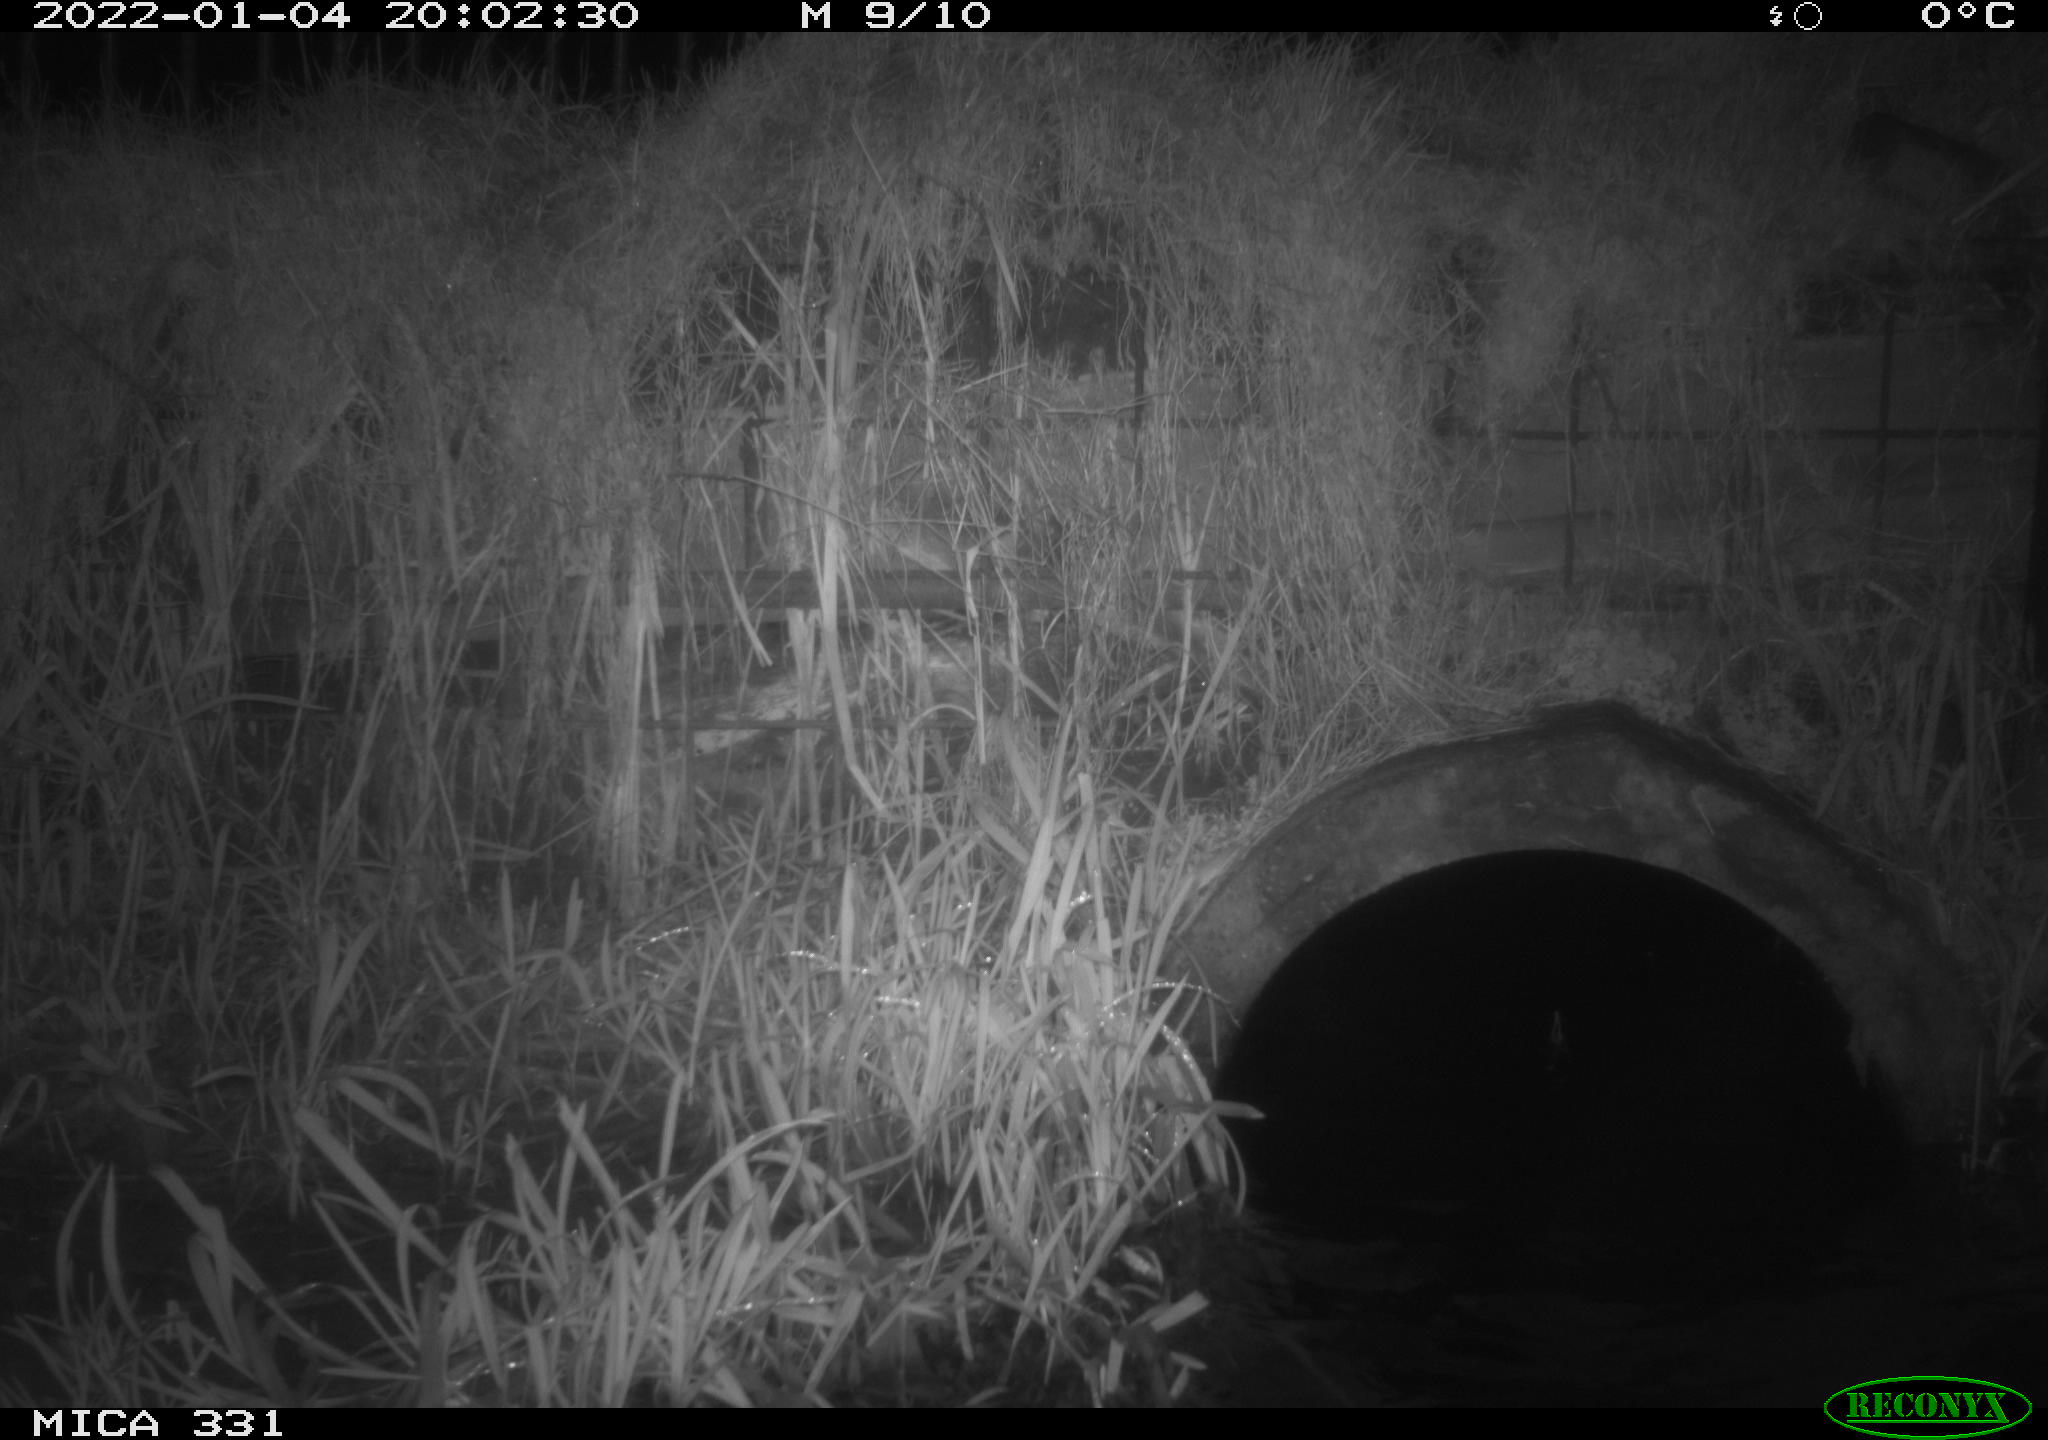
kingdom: Animalia
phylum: Chordata
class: Mammalia
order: Rodentia
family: Muridae
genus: Rattus
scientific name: Rattus norvegicus
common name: Brown rat
